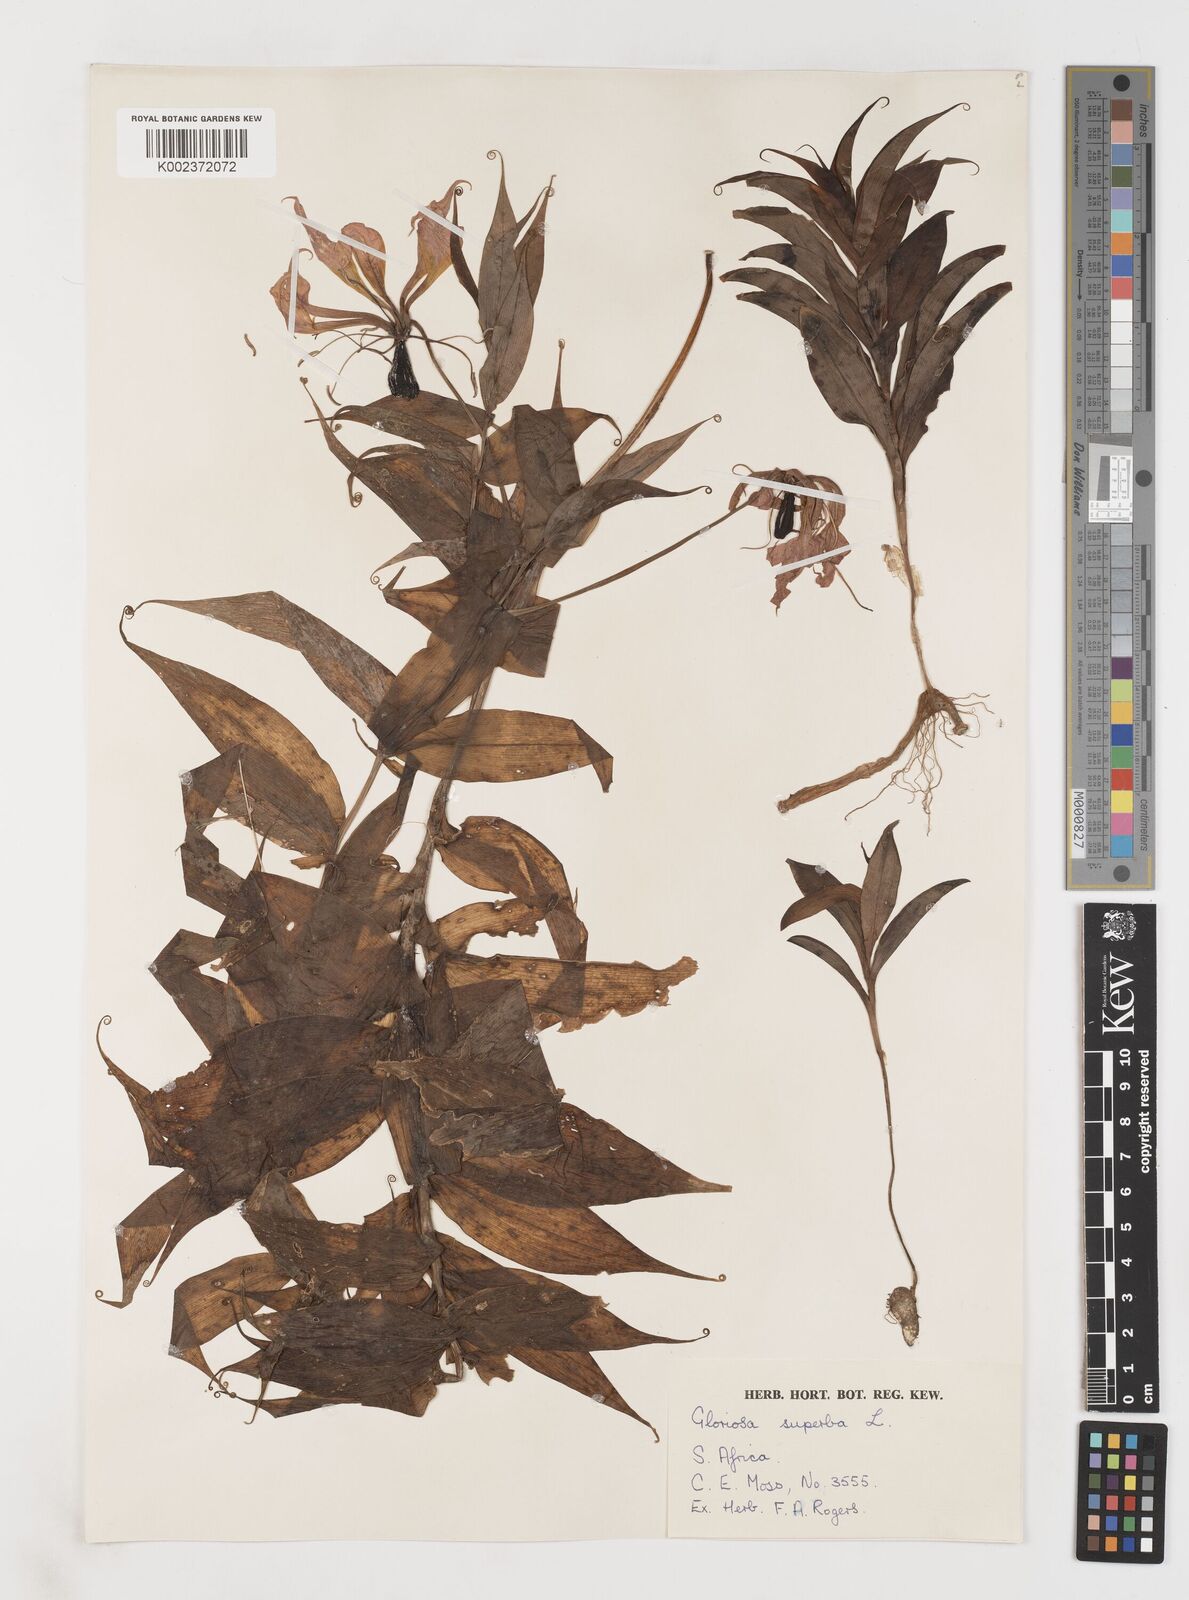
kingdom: Plantae
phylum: Tracheophyta
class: Liliopsida
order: Liliales
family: Colchicaceae
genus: Gloriosa
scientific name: Gloriosa simplex
